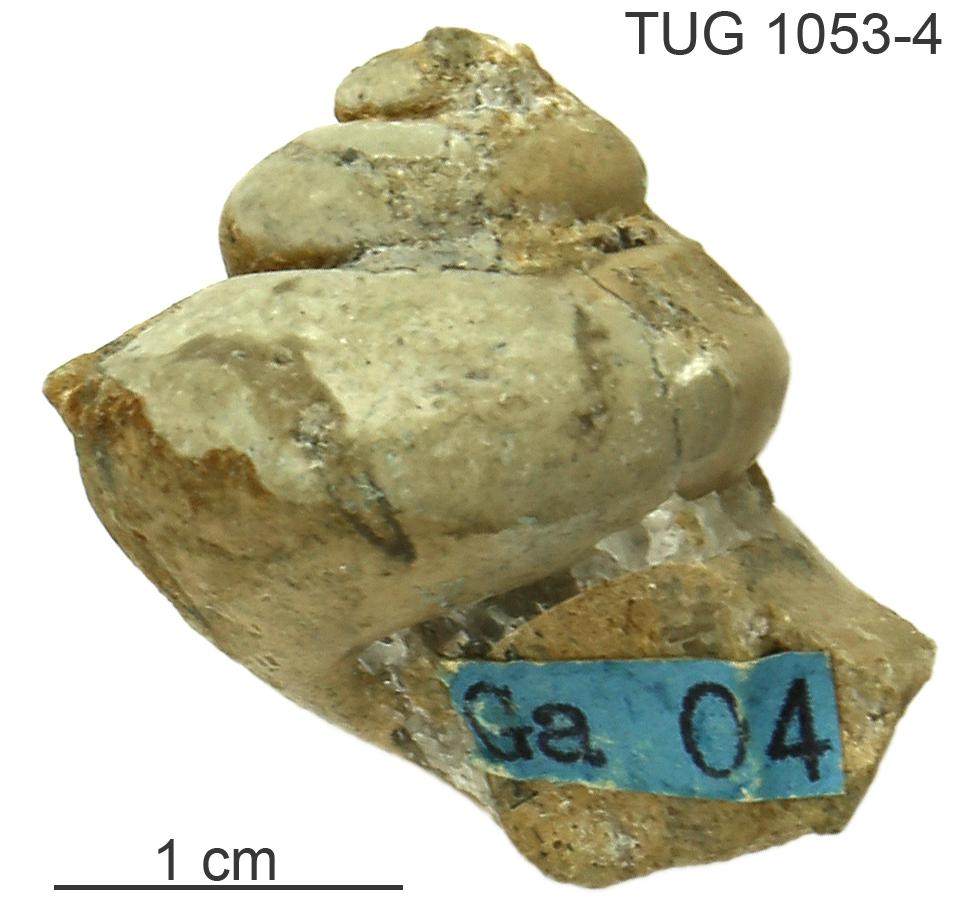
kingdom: Animalia
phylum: Mollusca
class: Gastropoda
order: Pleurotomariida
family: Phymatopleuridae
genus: Worthenia
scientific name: Worthenia
